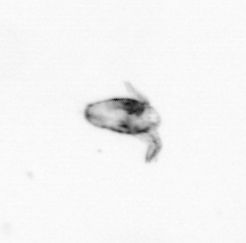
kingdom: Animalia
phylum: Arthropoda
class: Copepoda
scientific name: Copepoda
